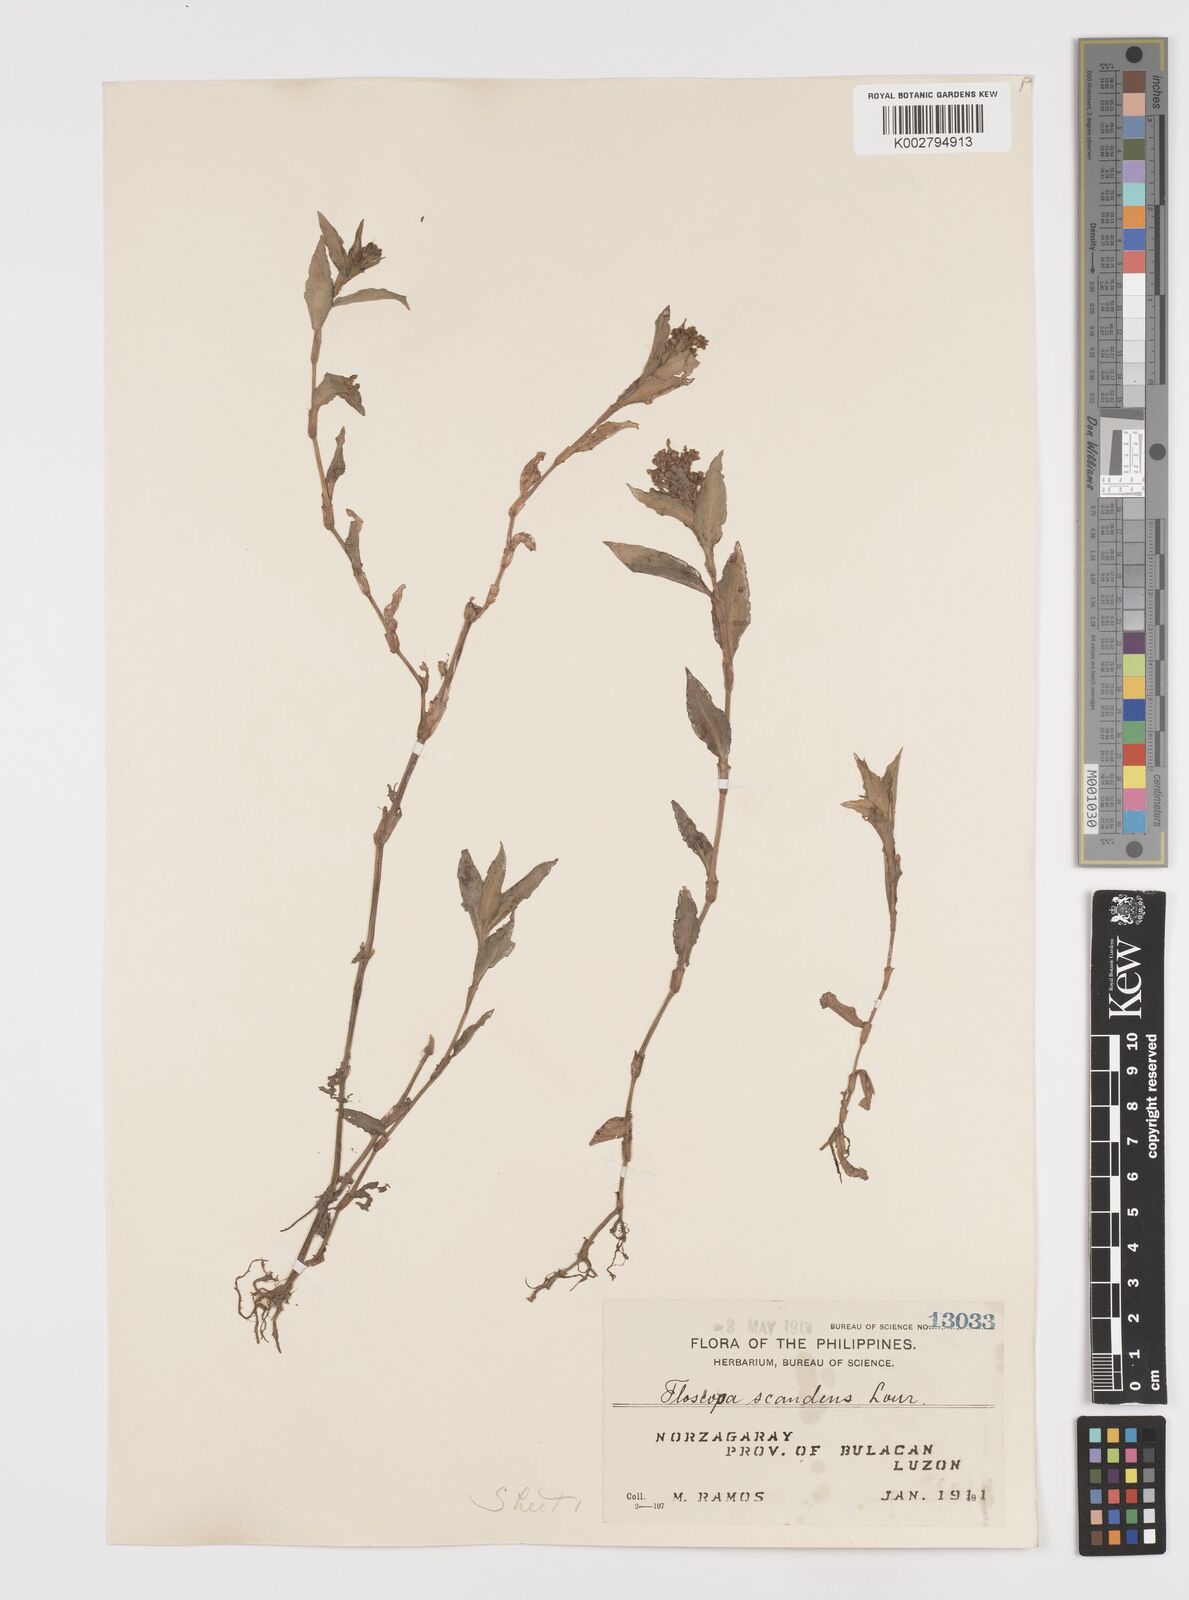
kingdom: Plantae
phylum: Tracheophyta
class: Liliopsida
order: Commelinales
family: Commelinaceae
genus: Floscopa
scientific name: Floscopa scandens
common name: Climbing flower cup
